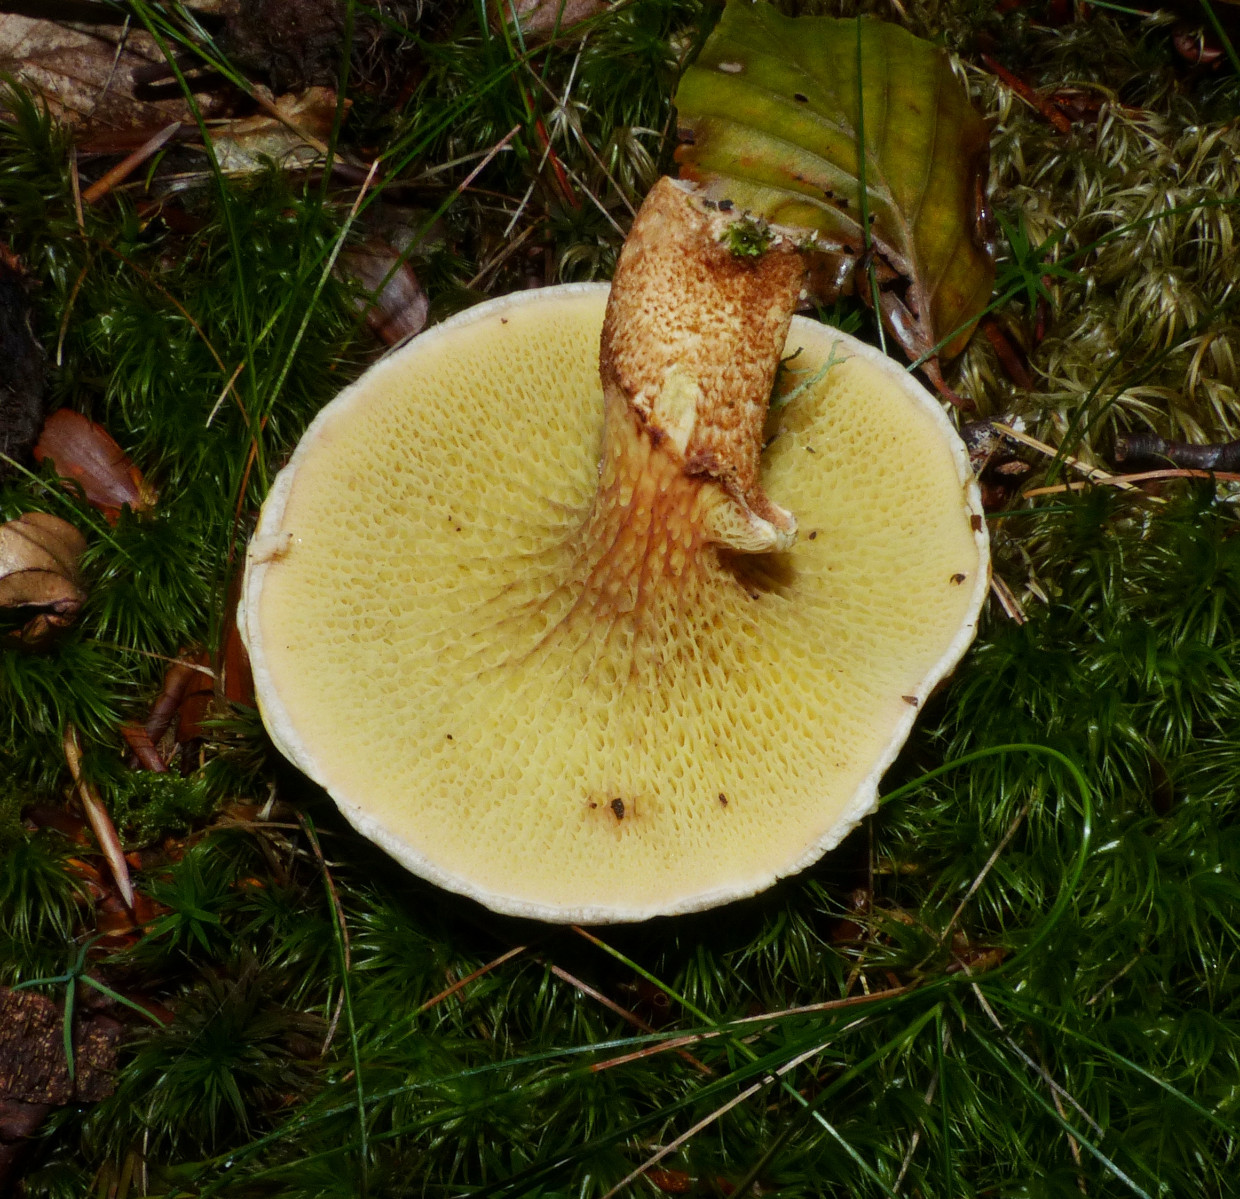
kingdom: Fungi
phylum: Basidiomycota
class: Agaricomycetes
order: Boletales
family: Suillaceae
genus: Suillus
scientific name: Suillus cavipes
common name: hulstokket slimrørhat
